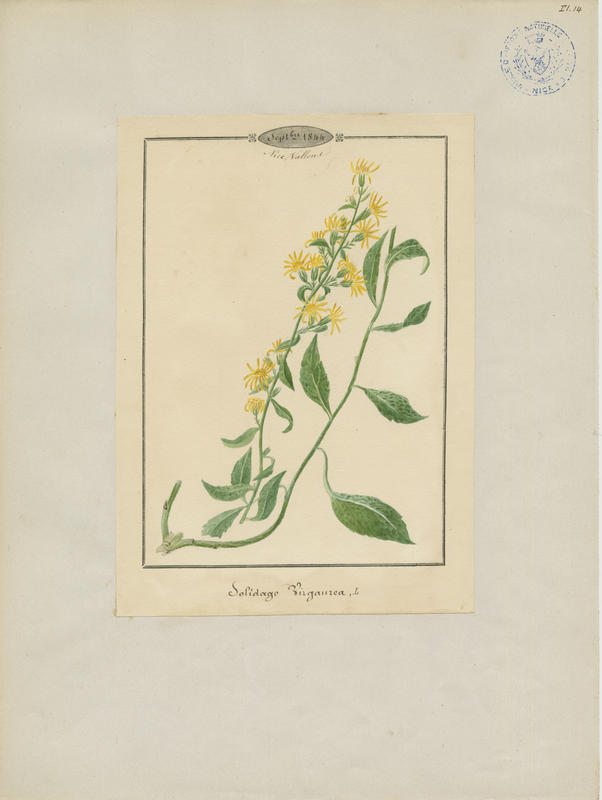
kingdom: Plantae
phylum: Tracheophyta
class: Magnoliopsida
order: Asterales
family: Asteraceae
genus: Solidago
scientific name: Solidago virgaurea
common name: Goldenrod
